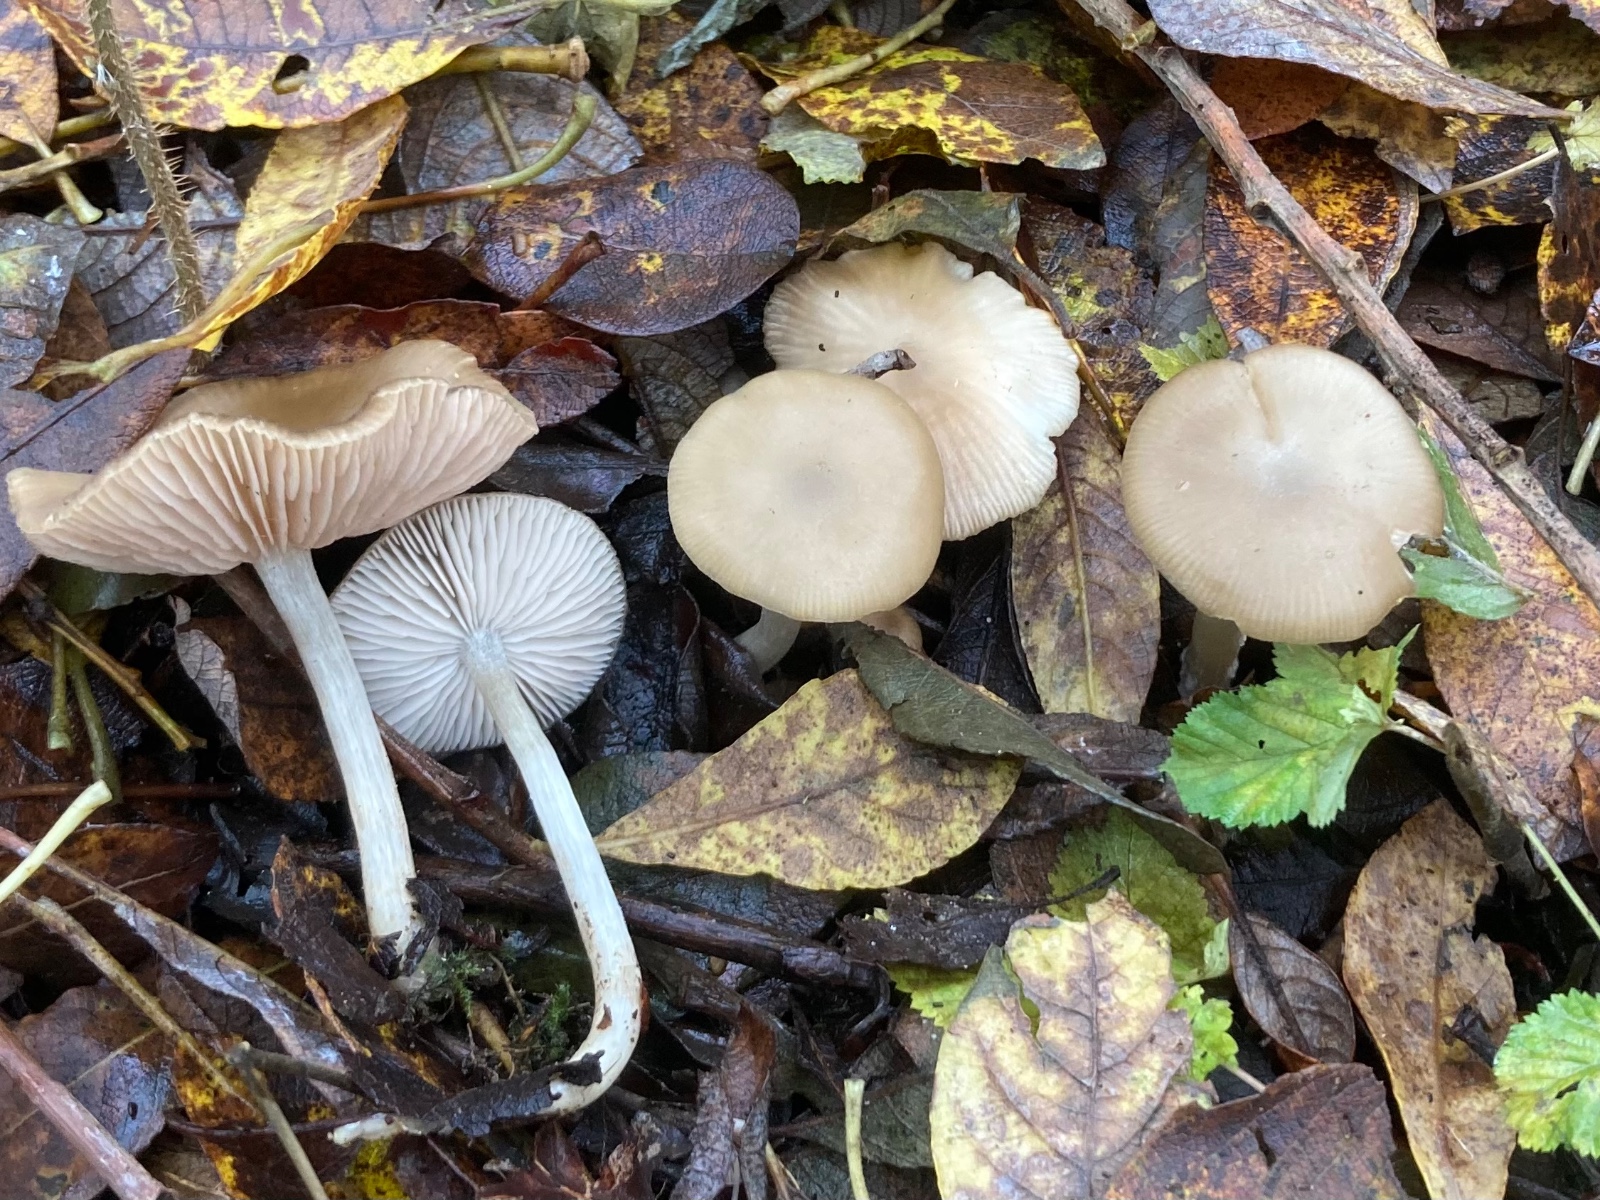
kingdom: Fungi
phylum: Basidiomycota
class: Agaricomycetes
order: Agaricales
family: Entolomataceae
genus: Entoloma
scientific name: Entoloma sericatum
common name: rank rødblad
